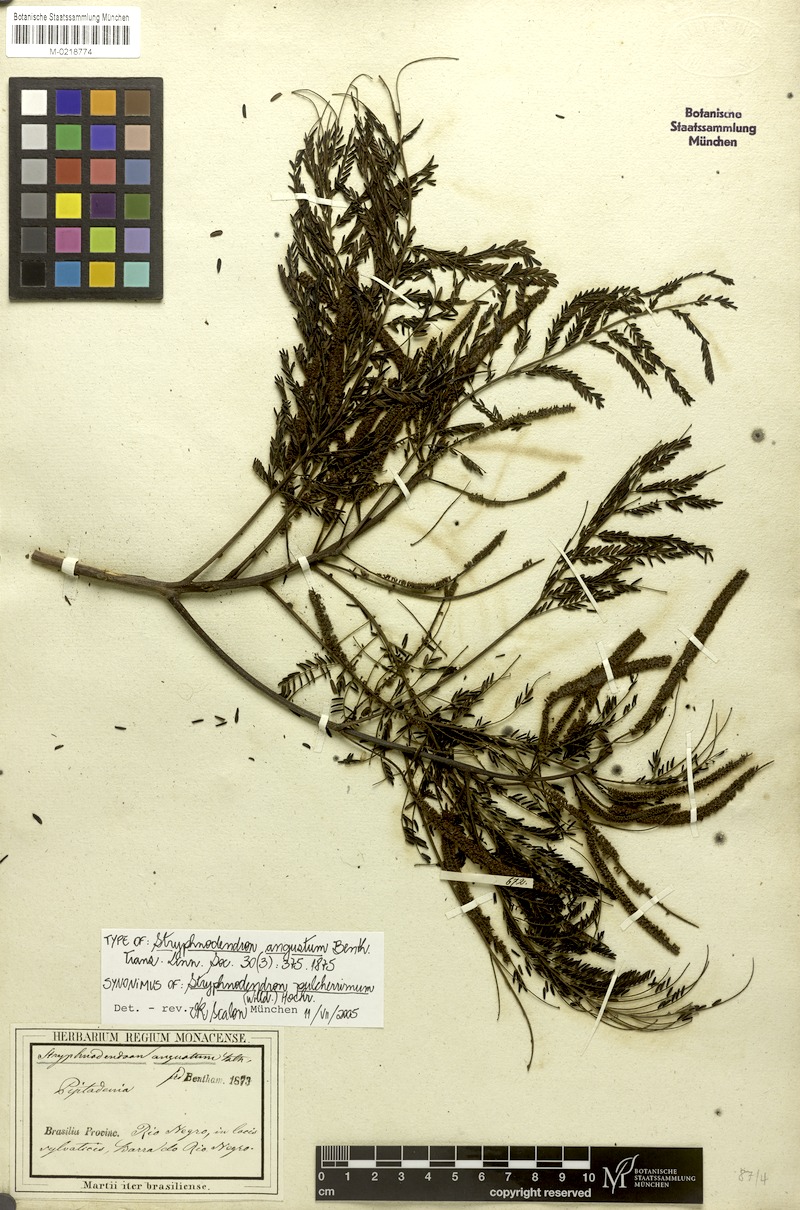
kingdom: Plantae
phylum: Tracheophyta
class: Magnoliopsida
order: Fabales
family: Fabaceae
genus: Stryphnodendron
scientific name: Stryphnodendron pulcherrimum
